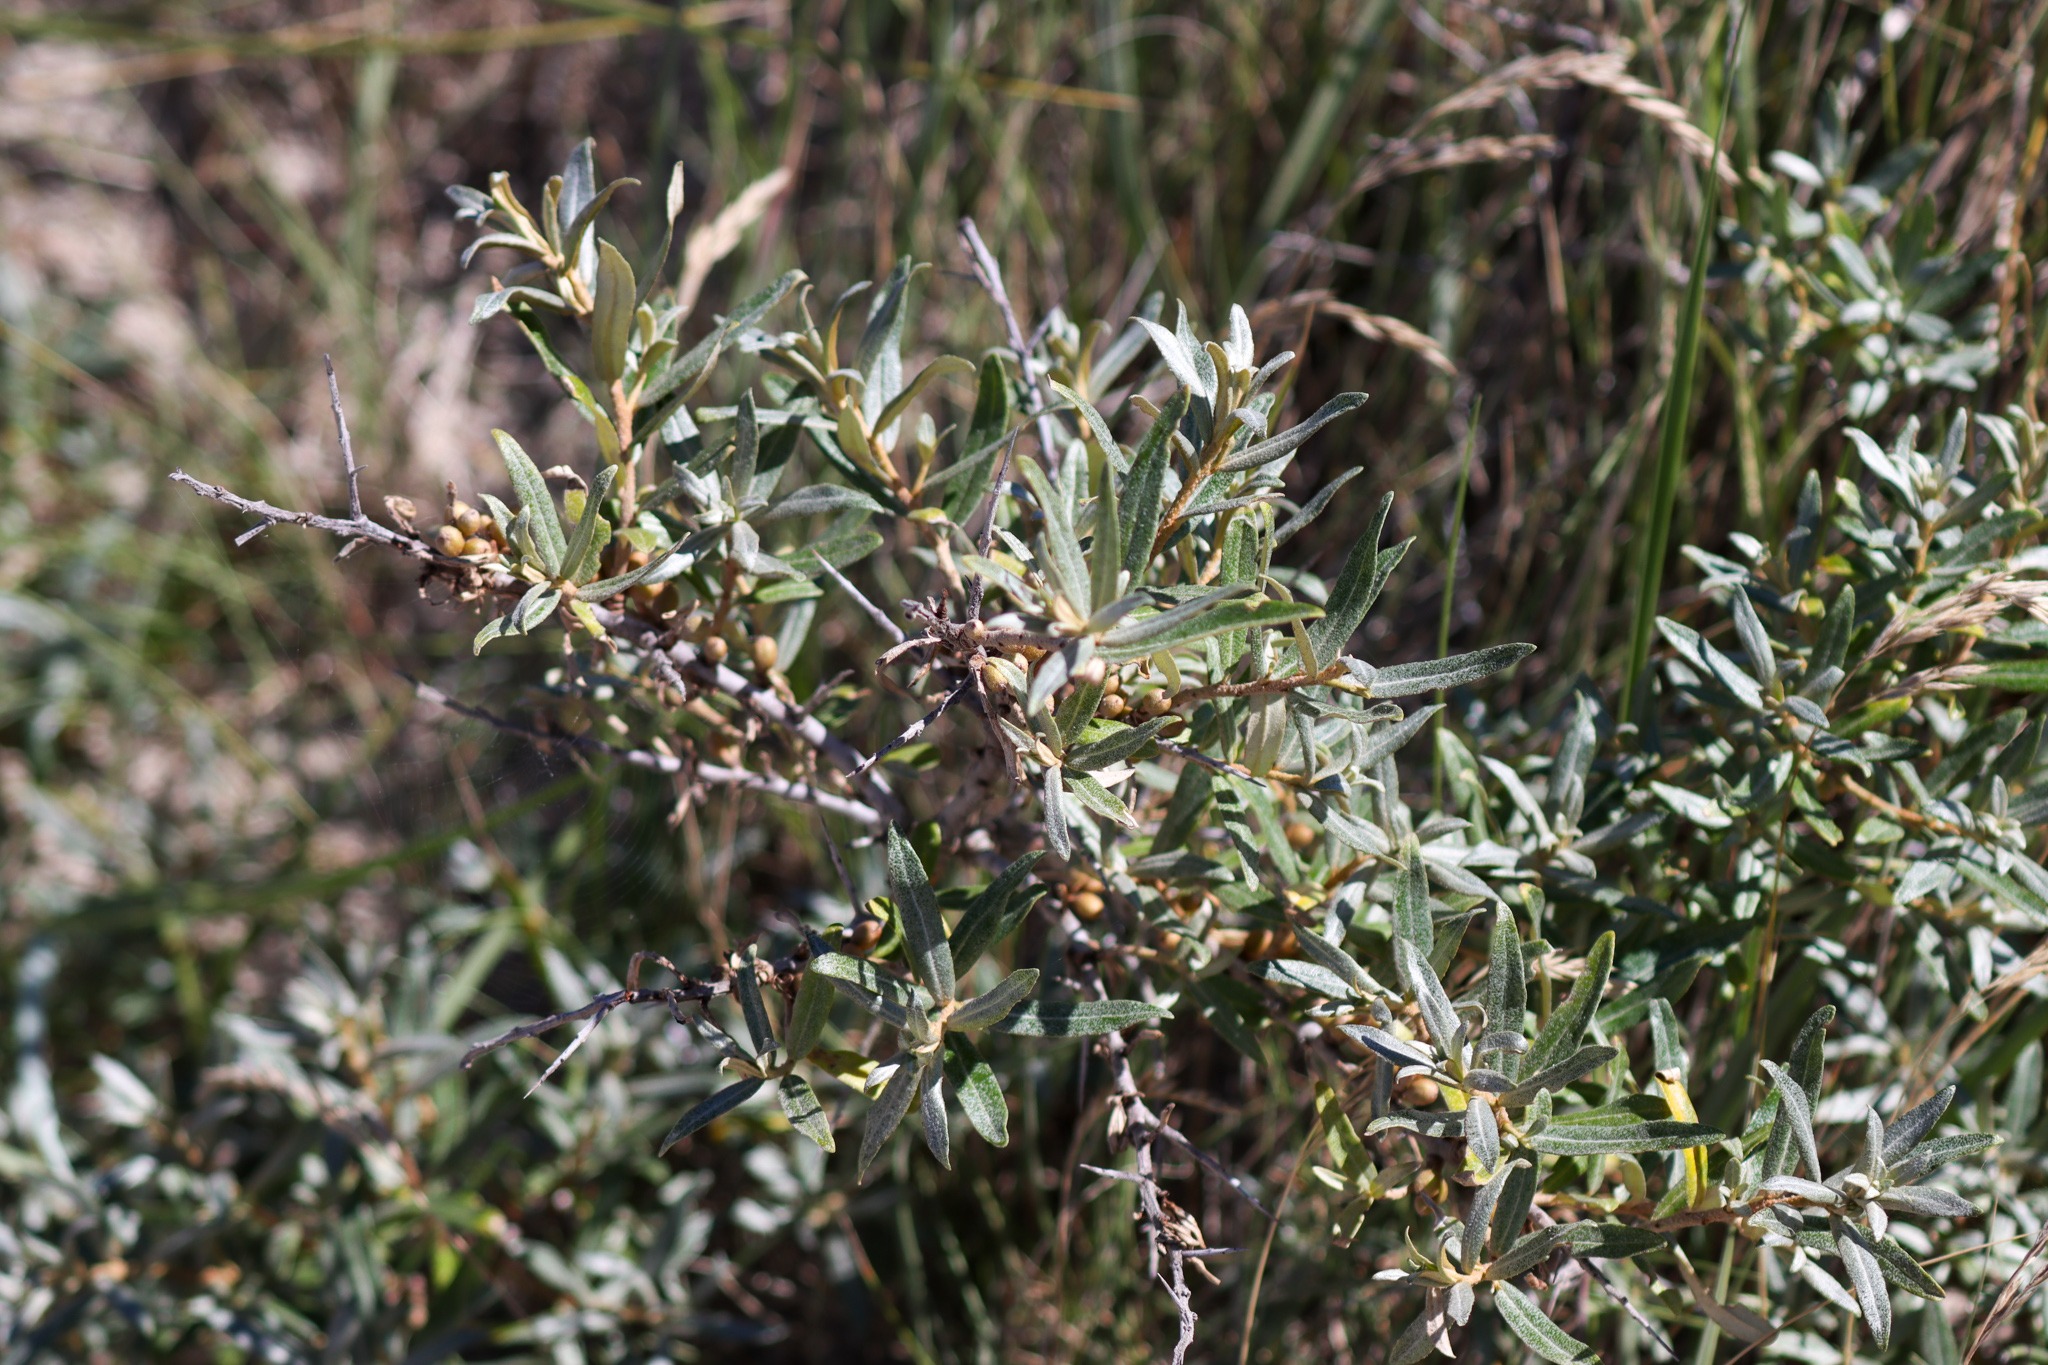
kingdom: Plantae
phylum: Tracheophyta
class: Magnoliopsida
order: Rosales
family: Elaeagnaceae
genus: Hippophae
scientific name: Hippophae rhamnoides
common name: Havtorn
